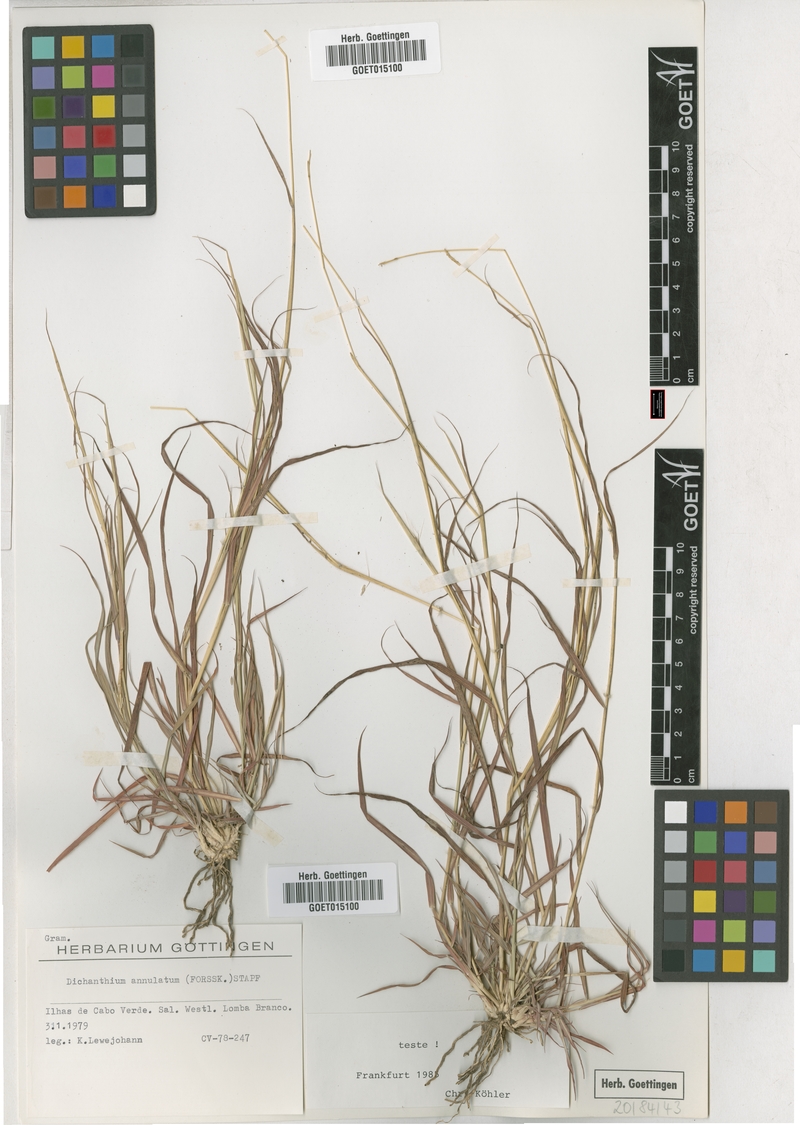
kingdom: Plantae
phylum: Tracheophyta
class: Liliopsida
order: Poales
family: Poaceae
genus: Dichanthium
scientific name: Dichanthium annulatum
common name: Kleberg's bluestem
